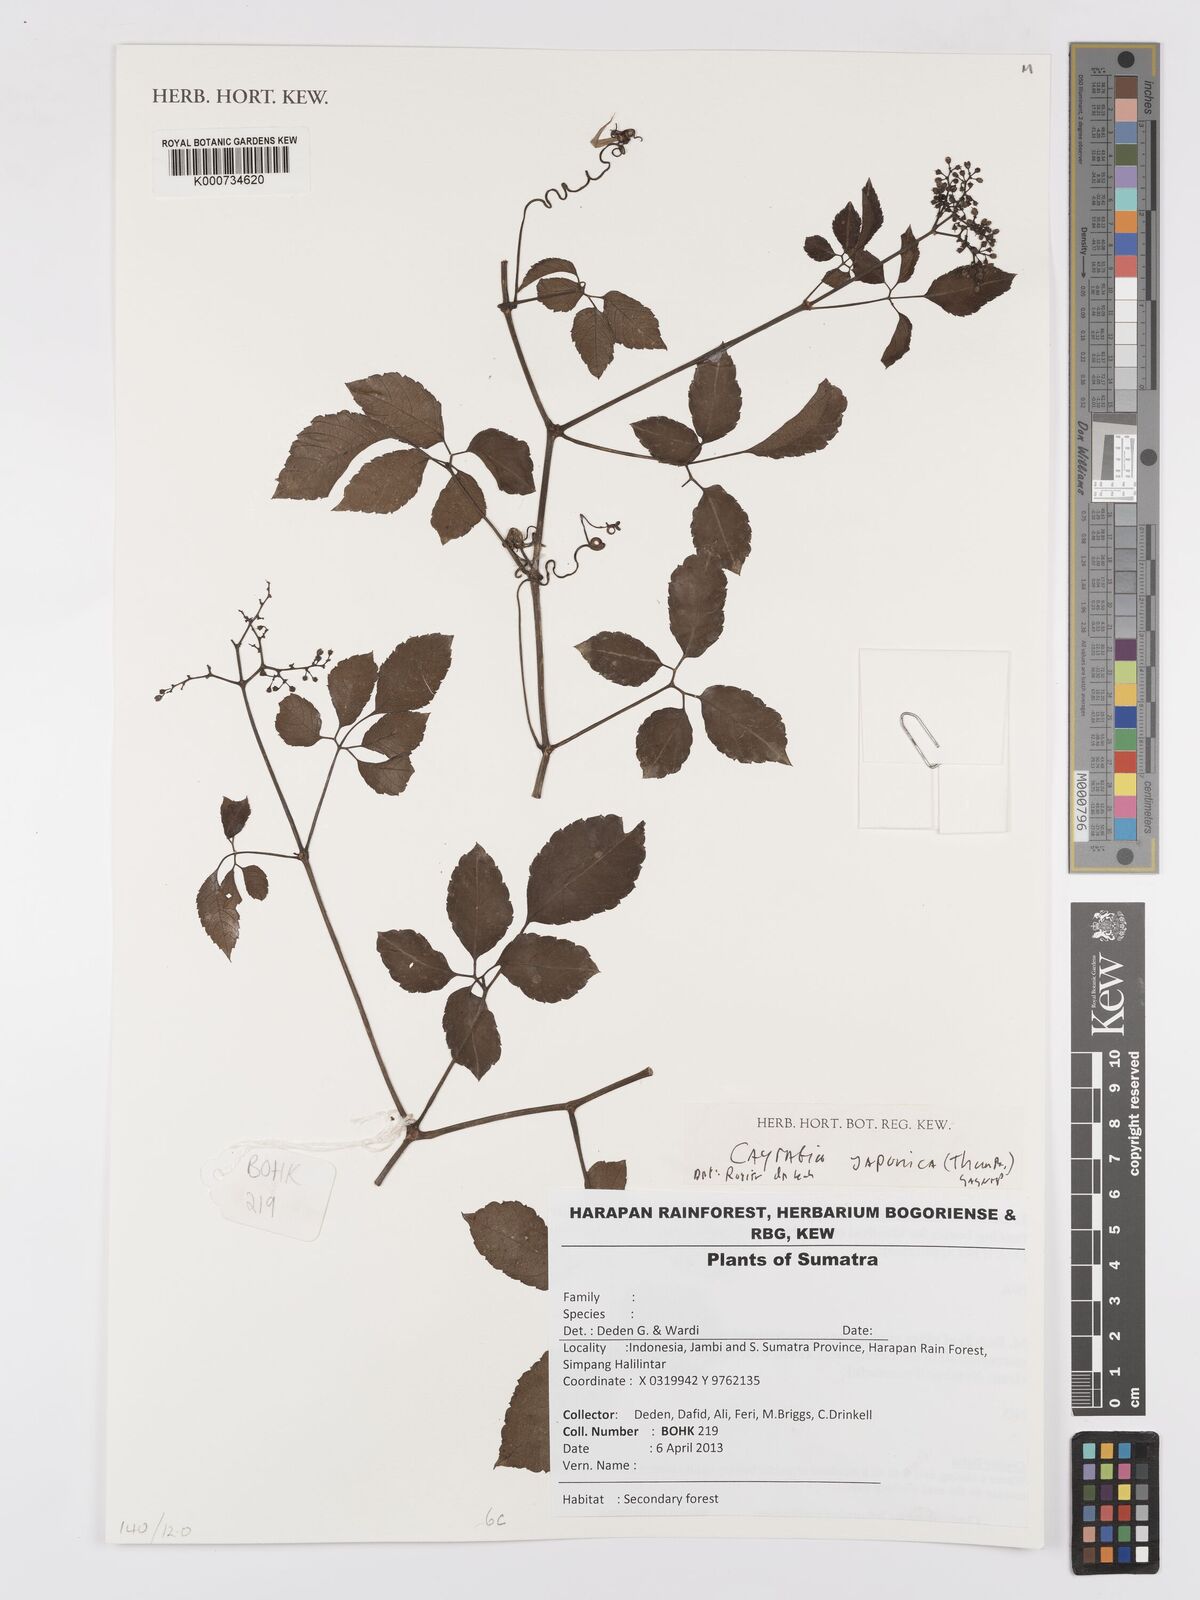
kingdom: Plantae
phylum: Tracheophyta
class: Magnoliopsida
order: Vitales
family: Vitaceae
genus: Causonis
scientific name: Causonis japonica
